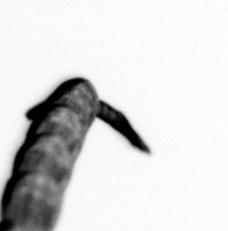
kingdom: Animalia
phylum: Arthropoda
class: Copepoda
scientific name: Copepoda
